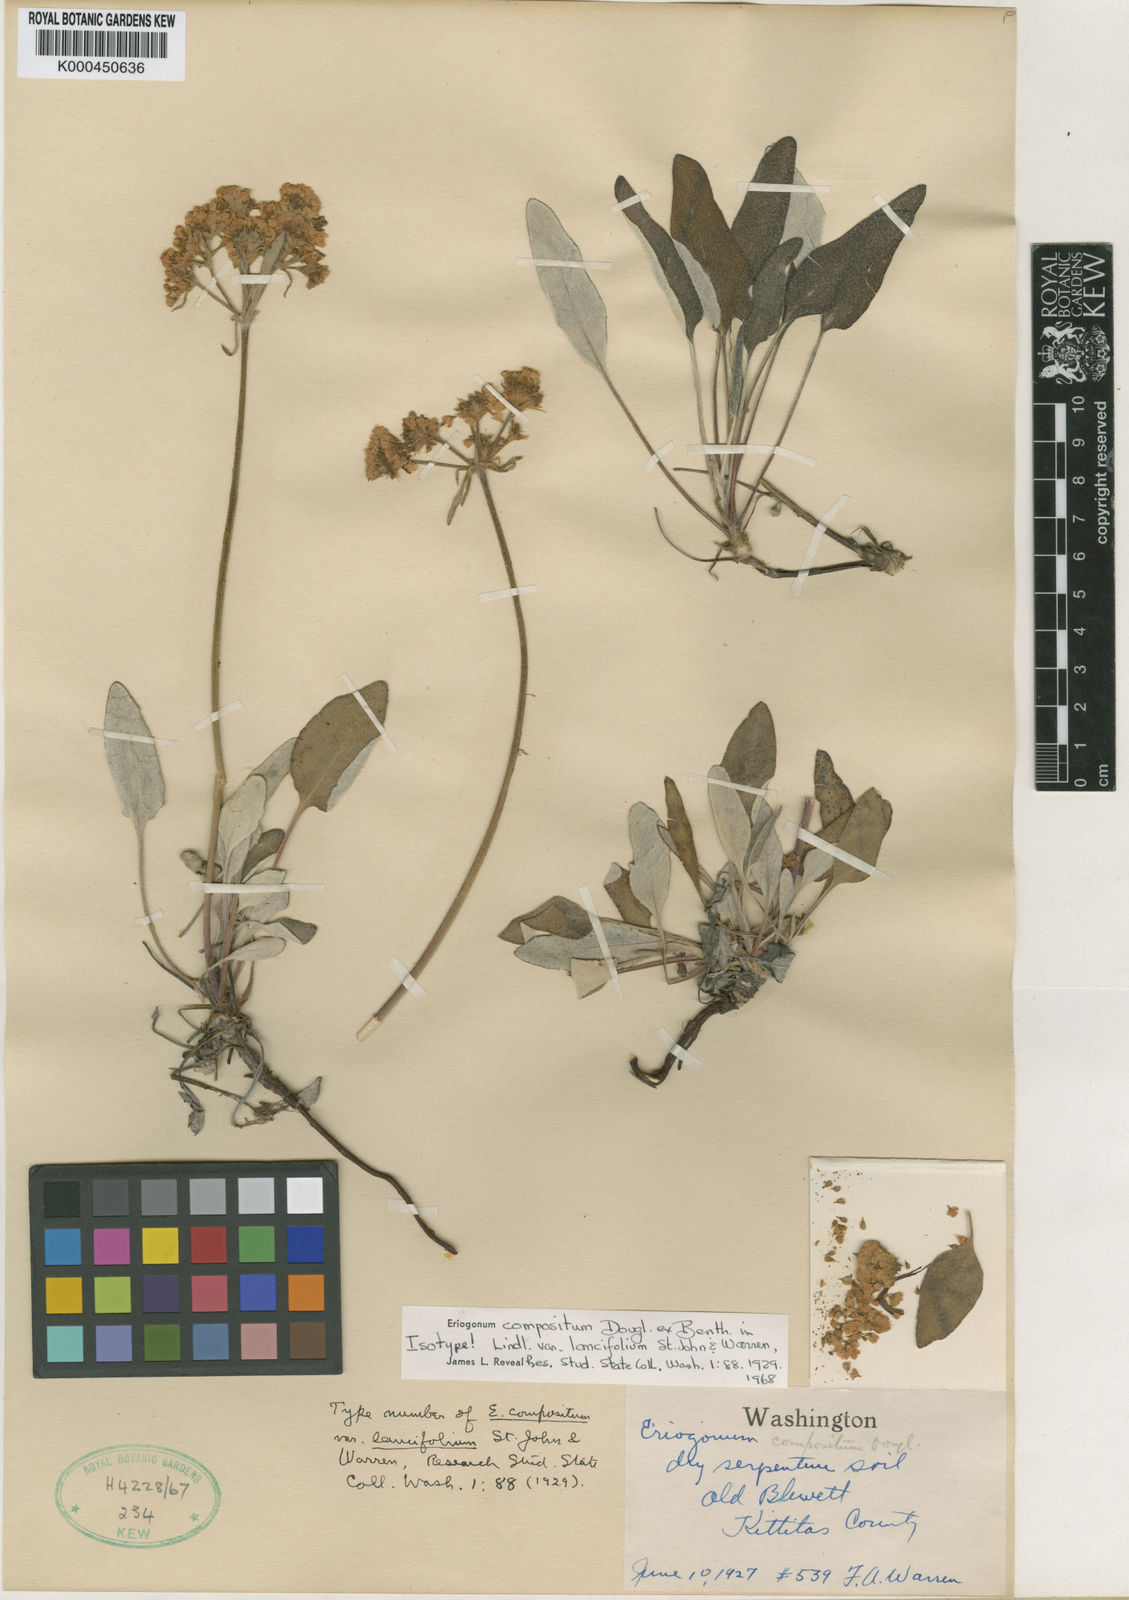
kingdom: Plantae
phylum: Tracheophyta
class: Magnoliopsida
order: Caryophyllales
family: Polygonaceae
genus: Eriogonum
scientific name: Eriogonum
